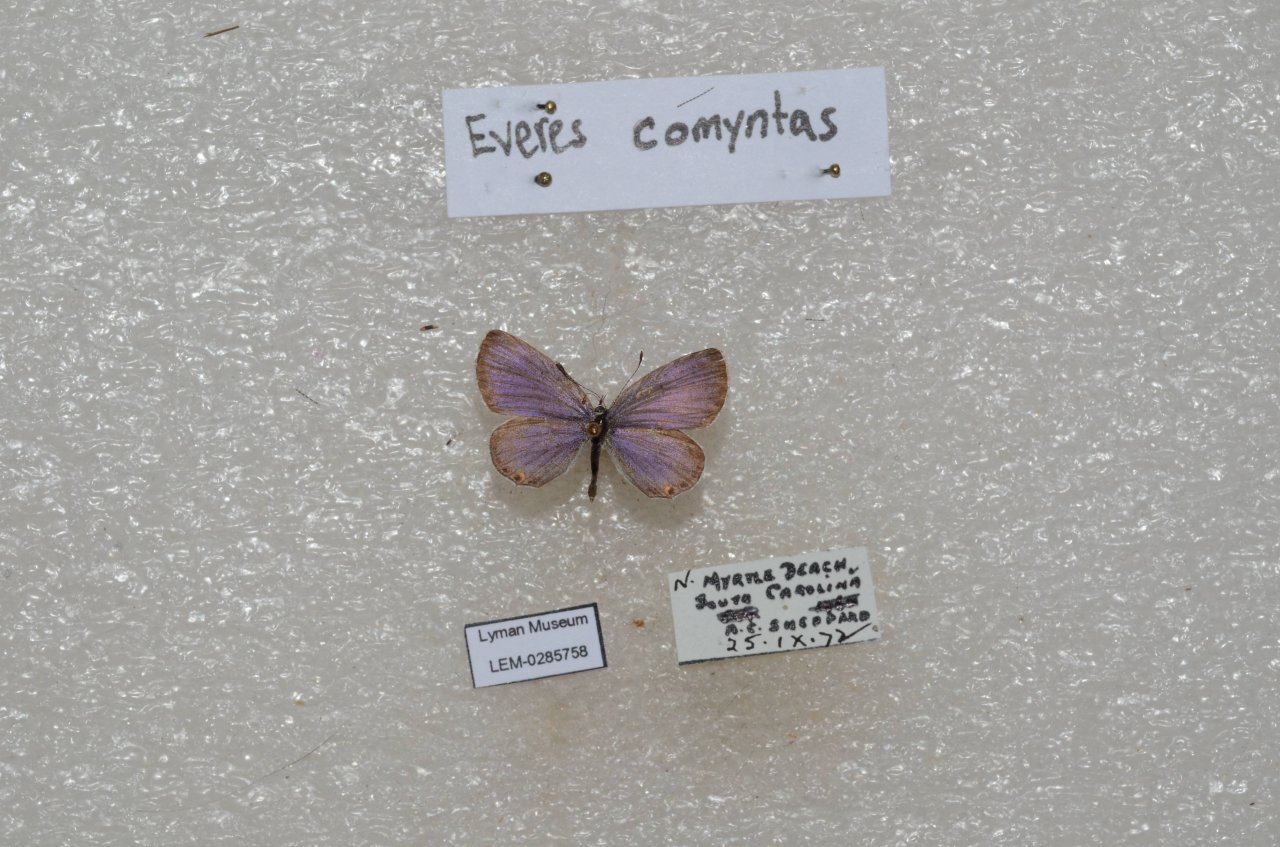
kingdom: Animalia
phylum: Arthropoda
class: Insecta
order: Lepidoptera
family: Lycaenidae
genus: Elkalyce
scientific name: Elkalyce comyntas
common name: Eastern Tailed-Blue
